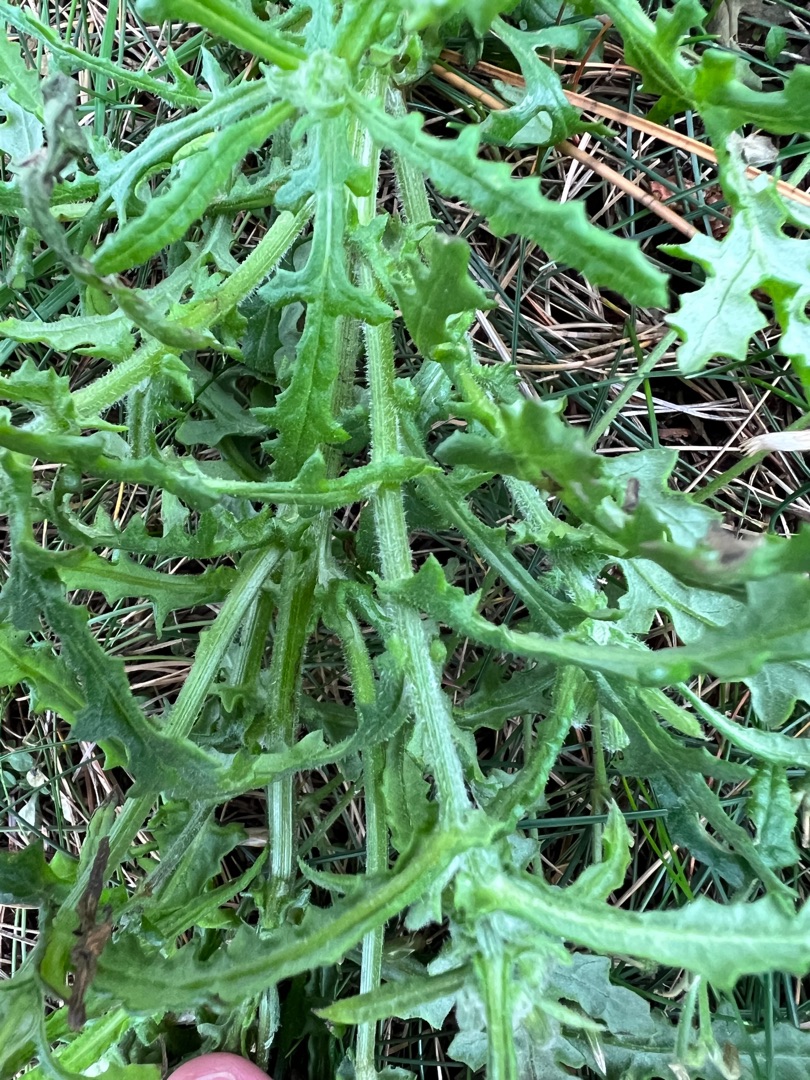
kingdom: Plantae
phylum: Tracheophyta
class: Magnoliopsida
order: Asterales
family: Asteraceae
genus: Senecio
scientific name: Senecio sylvaticus
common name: Skov-brandbæger
